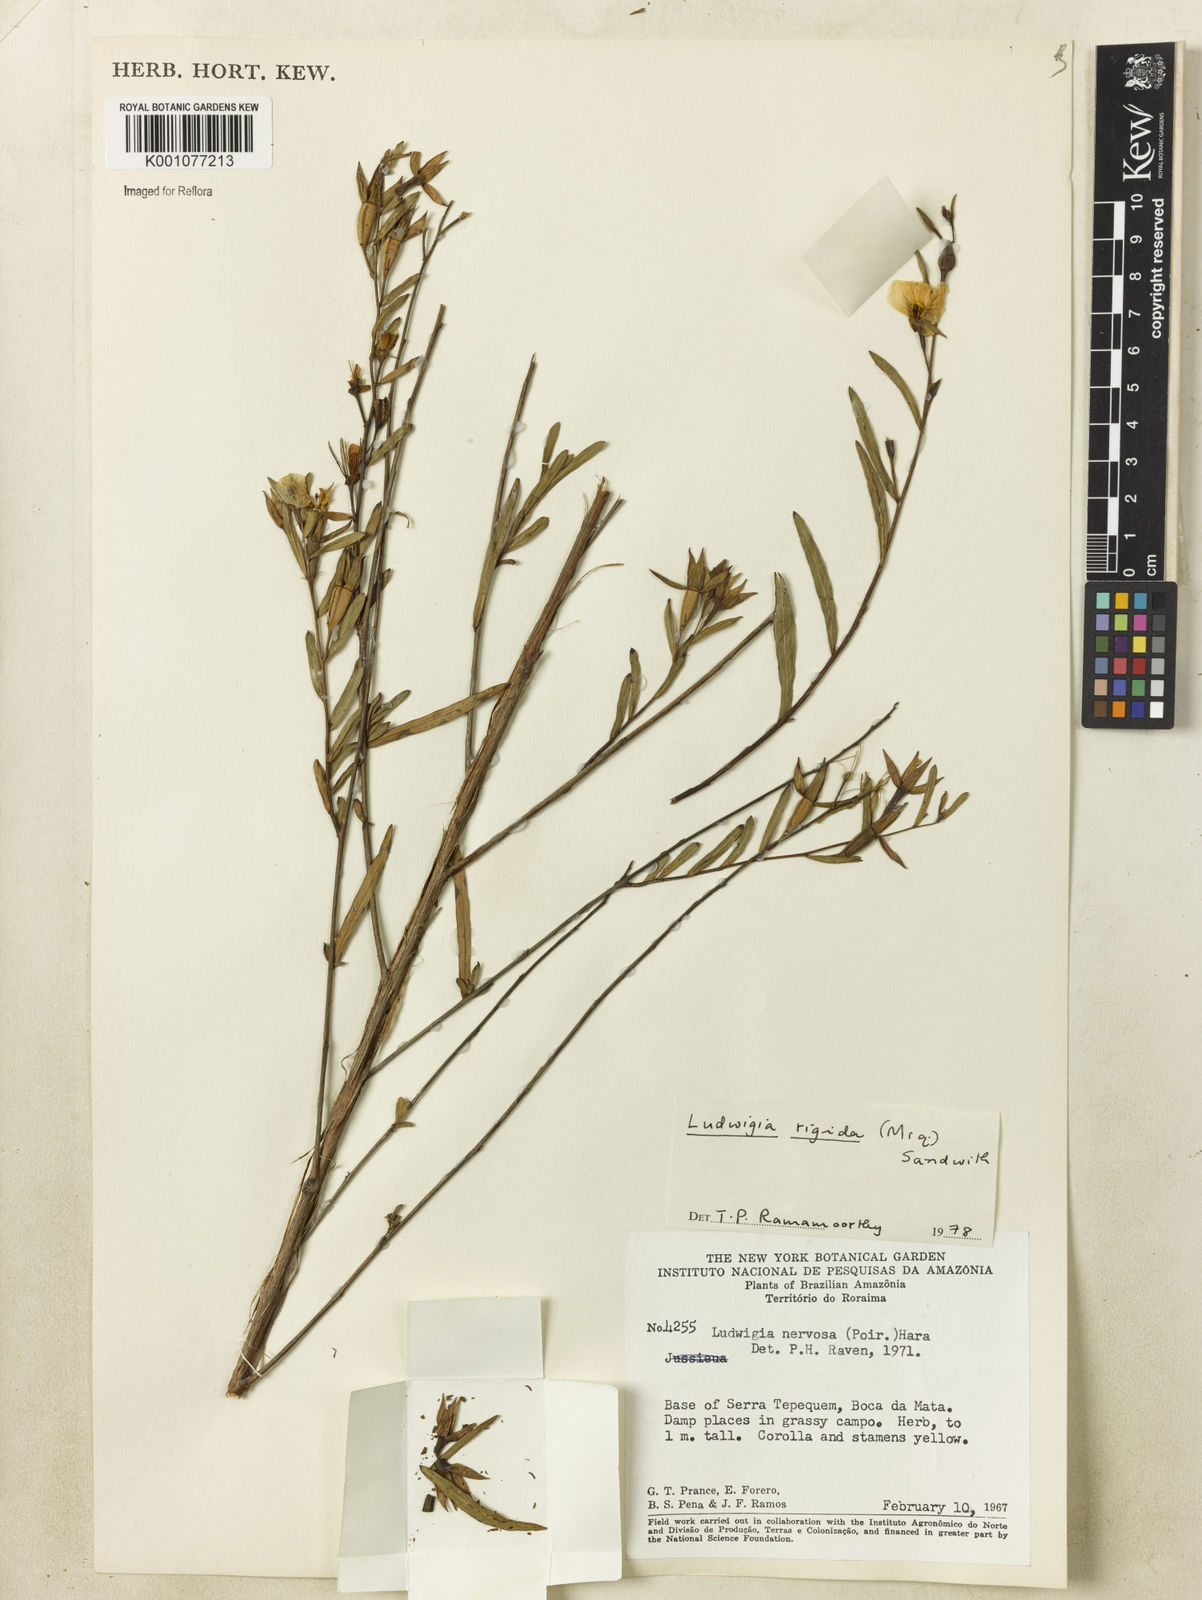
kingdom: Plantae
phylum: Tracheophyta
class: Magnoliopsida
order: Myrtales
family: Onagraceae
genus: Ludwigia
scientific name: Ludwigia rigida
